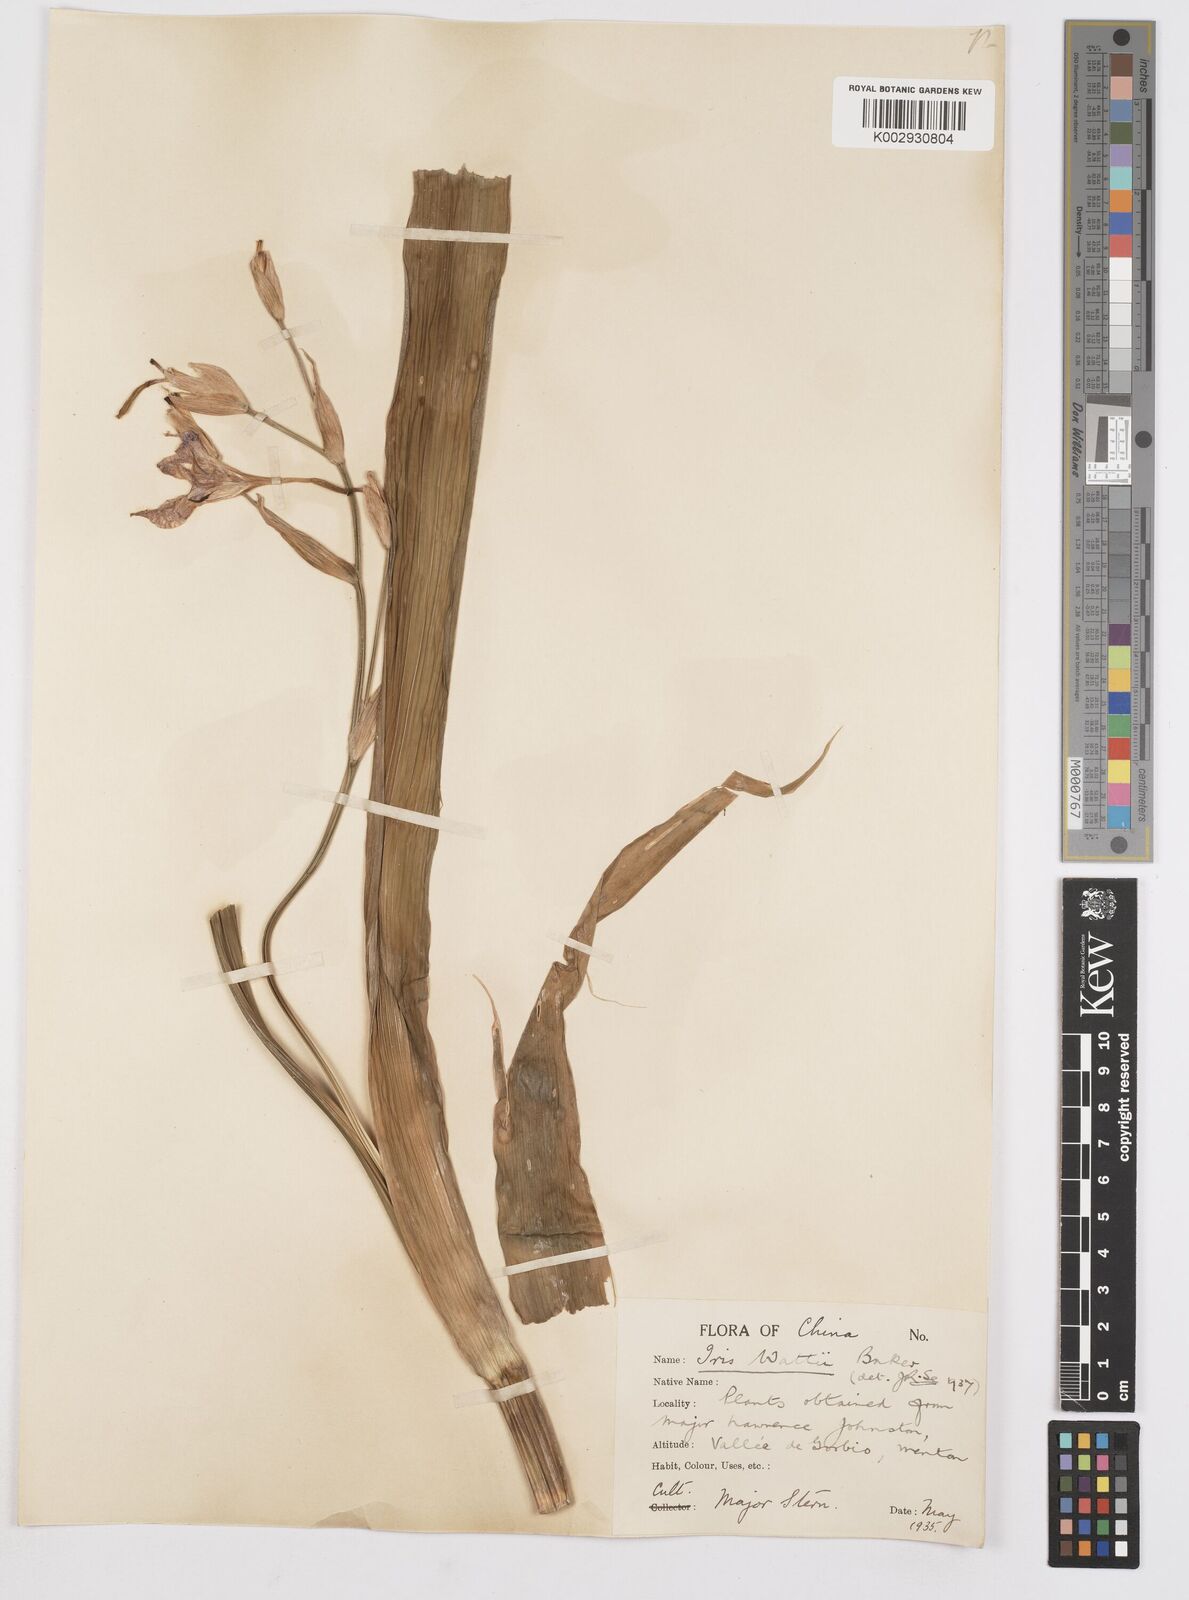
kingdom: Plantae
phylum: Tracheophyta
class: Liliopsida
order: Asparagales
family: Iridaceae
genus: Iris
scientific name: Iris wattii
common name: Fan-shape iris
